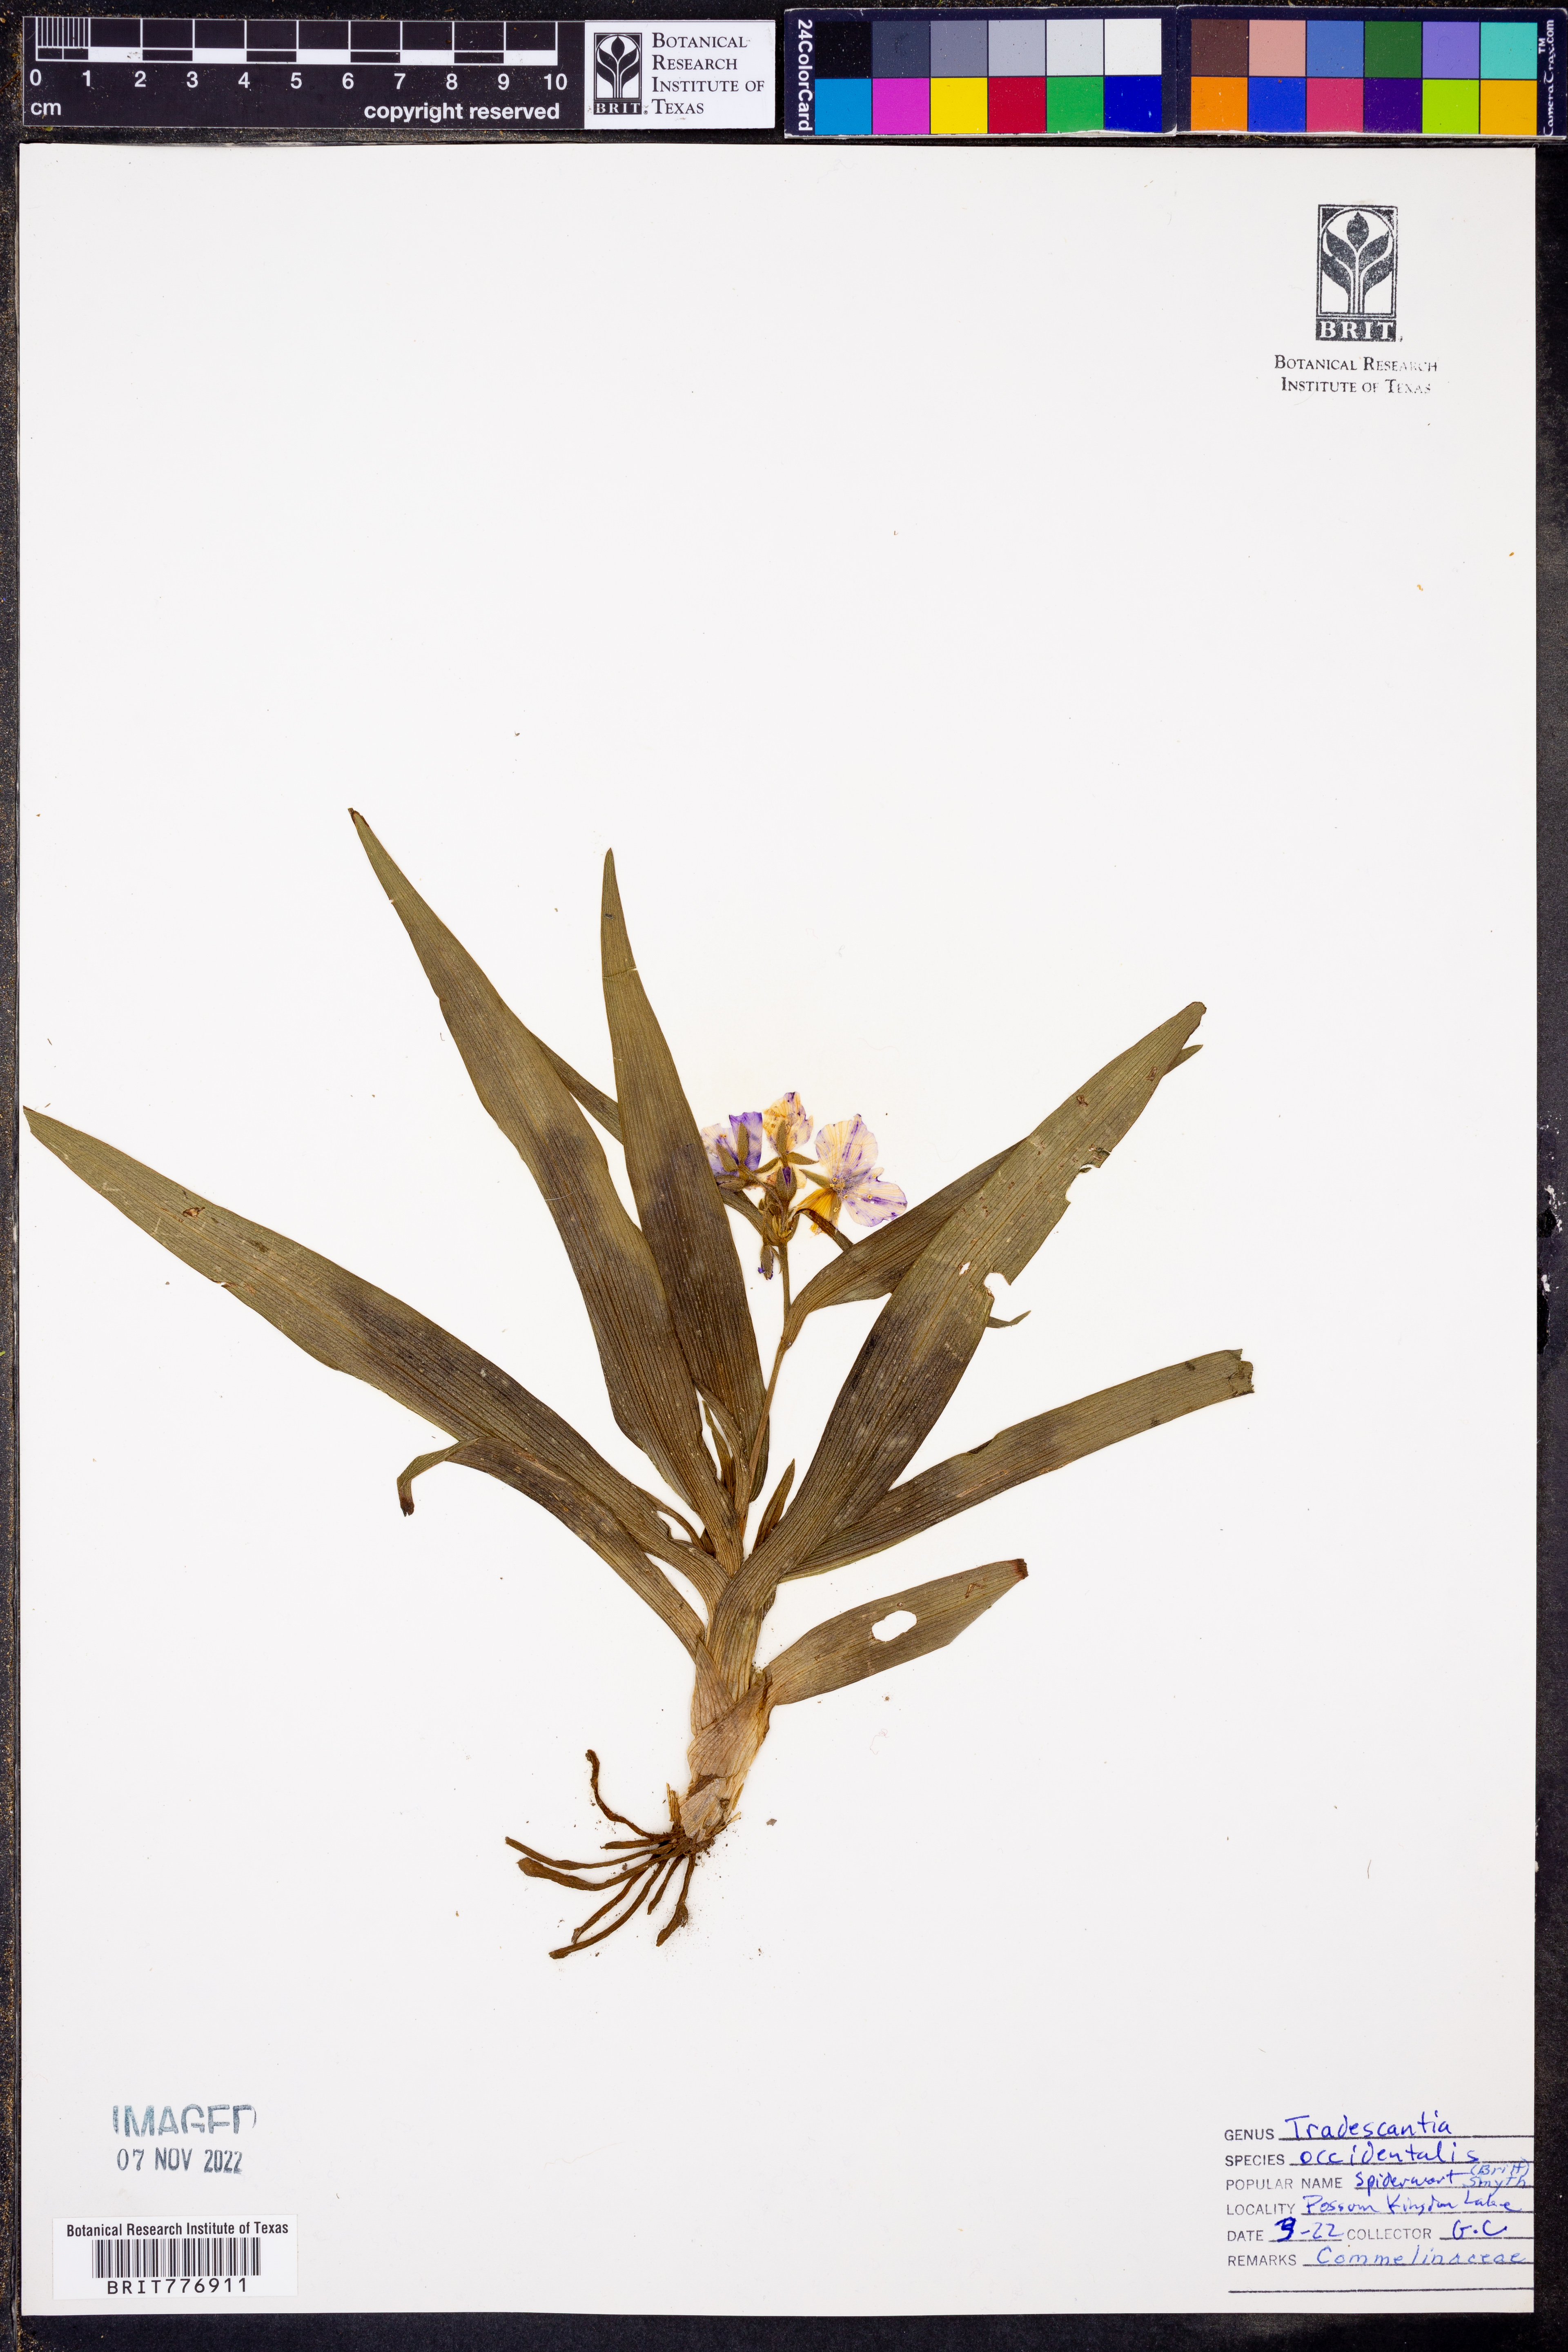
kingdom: Plantae
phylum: Tracheophyta
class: Liliopsida
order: Commelinales
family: Commelinaceae
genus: Tradescantia
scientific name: Tradescantia occidentalis
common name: Prairie spiderwort
